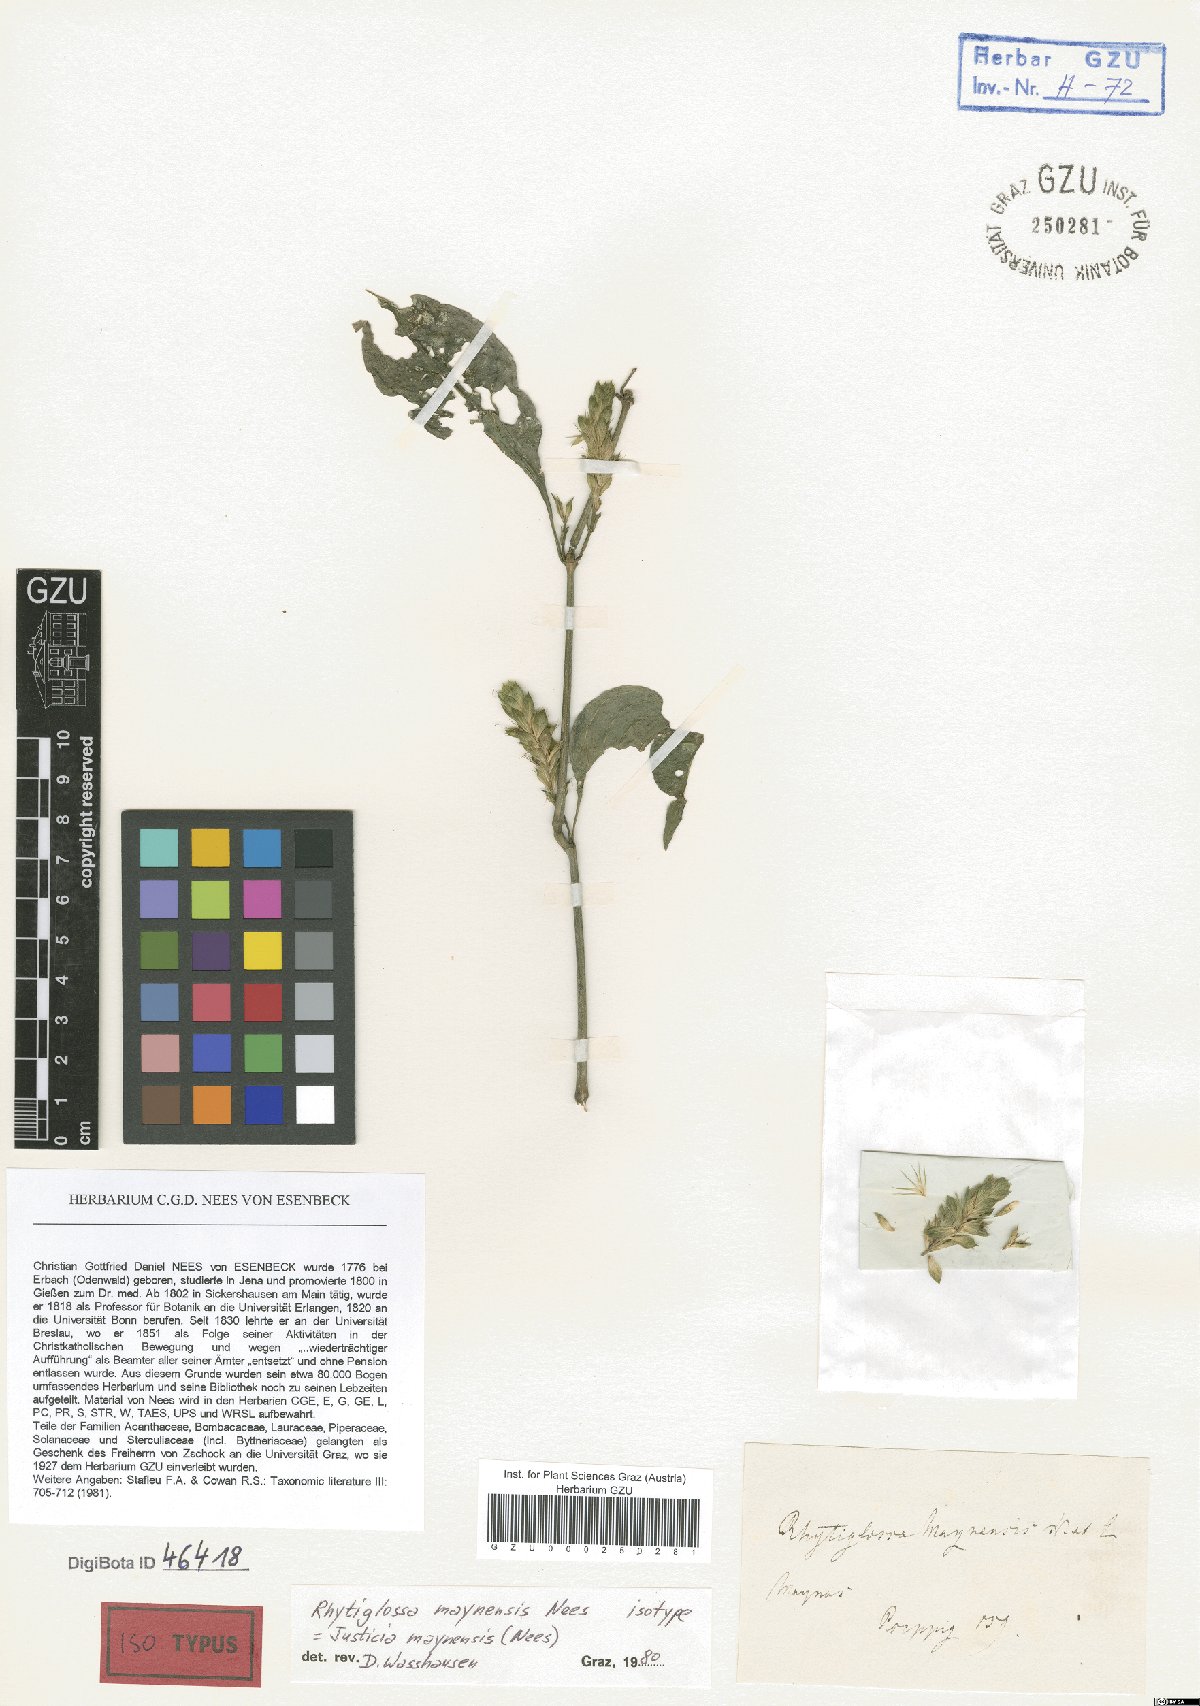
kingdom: Plantae
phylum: Tracheophyta
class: Magnoliopsida
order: Lamiales
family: Acanthaceae
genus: Isoglossa
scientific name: Isoglossa Rhytiglossa maynensis
